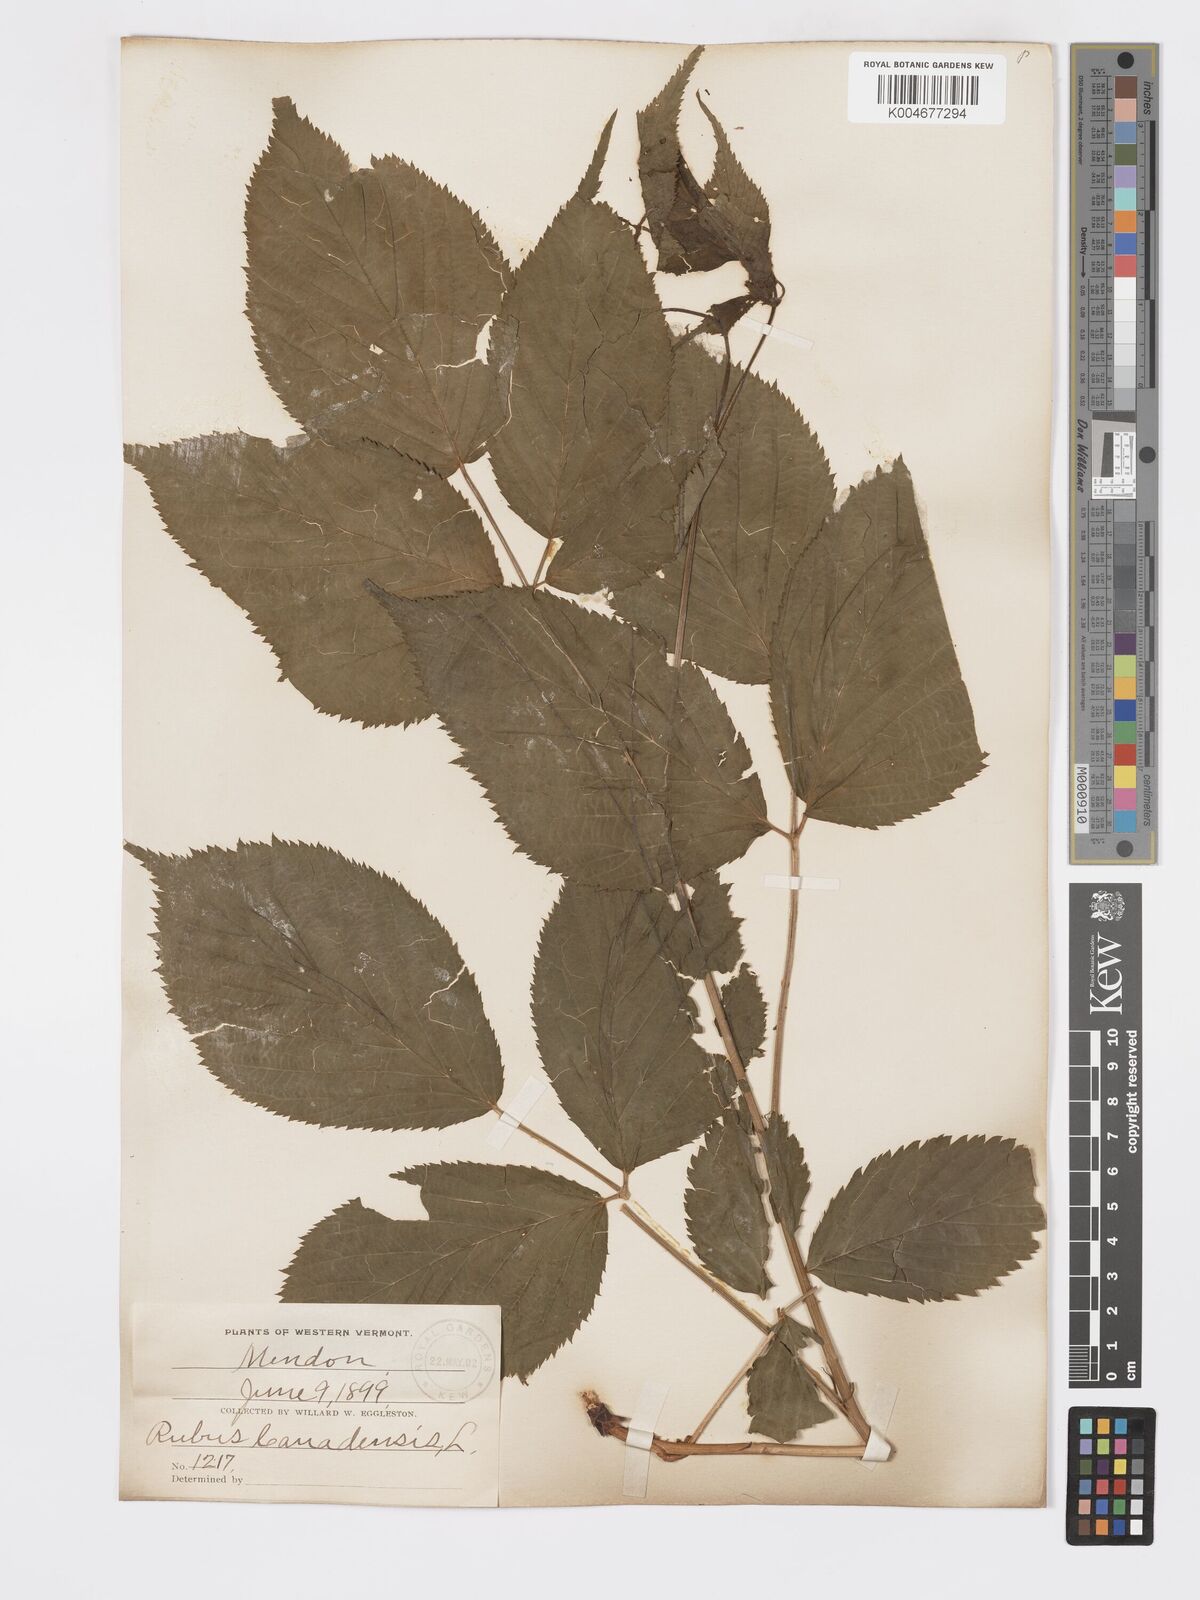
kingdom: Plantae
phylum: Tracheophyta
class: Magnoliopsida
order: Rosales
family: Rosaceae
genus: Rubus
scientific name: Rubus canadensis
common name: Smooth blackberry
